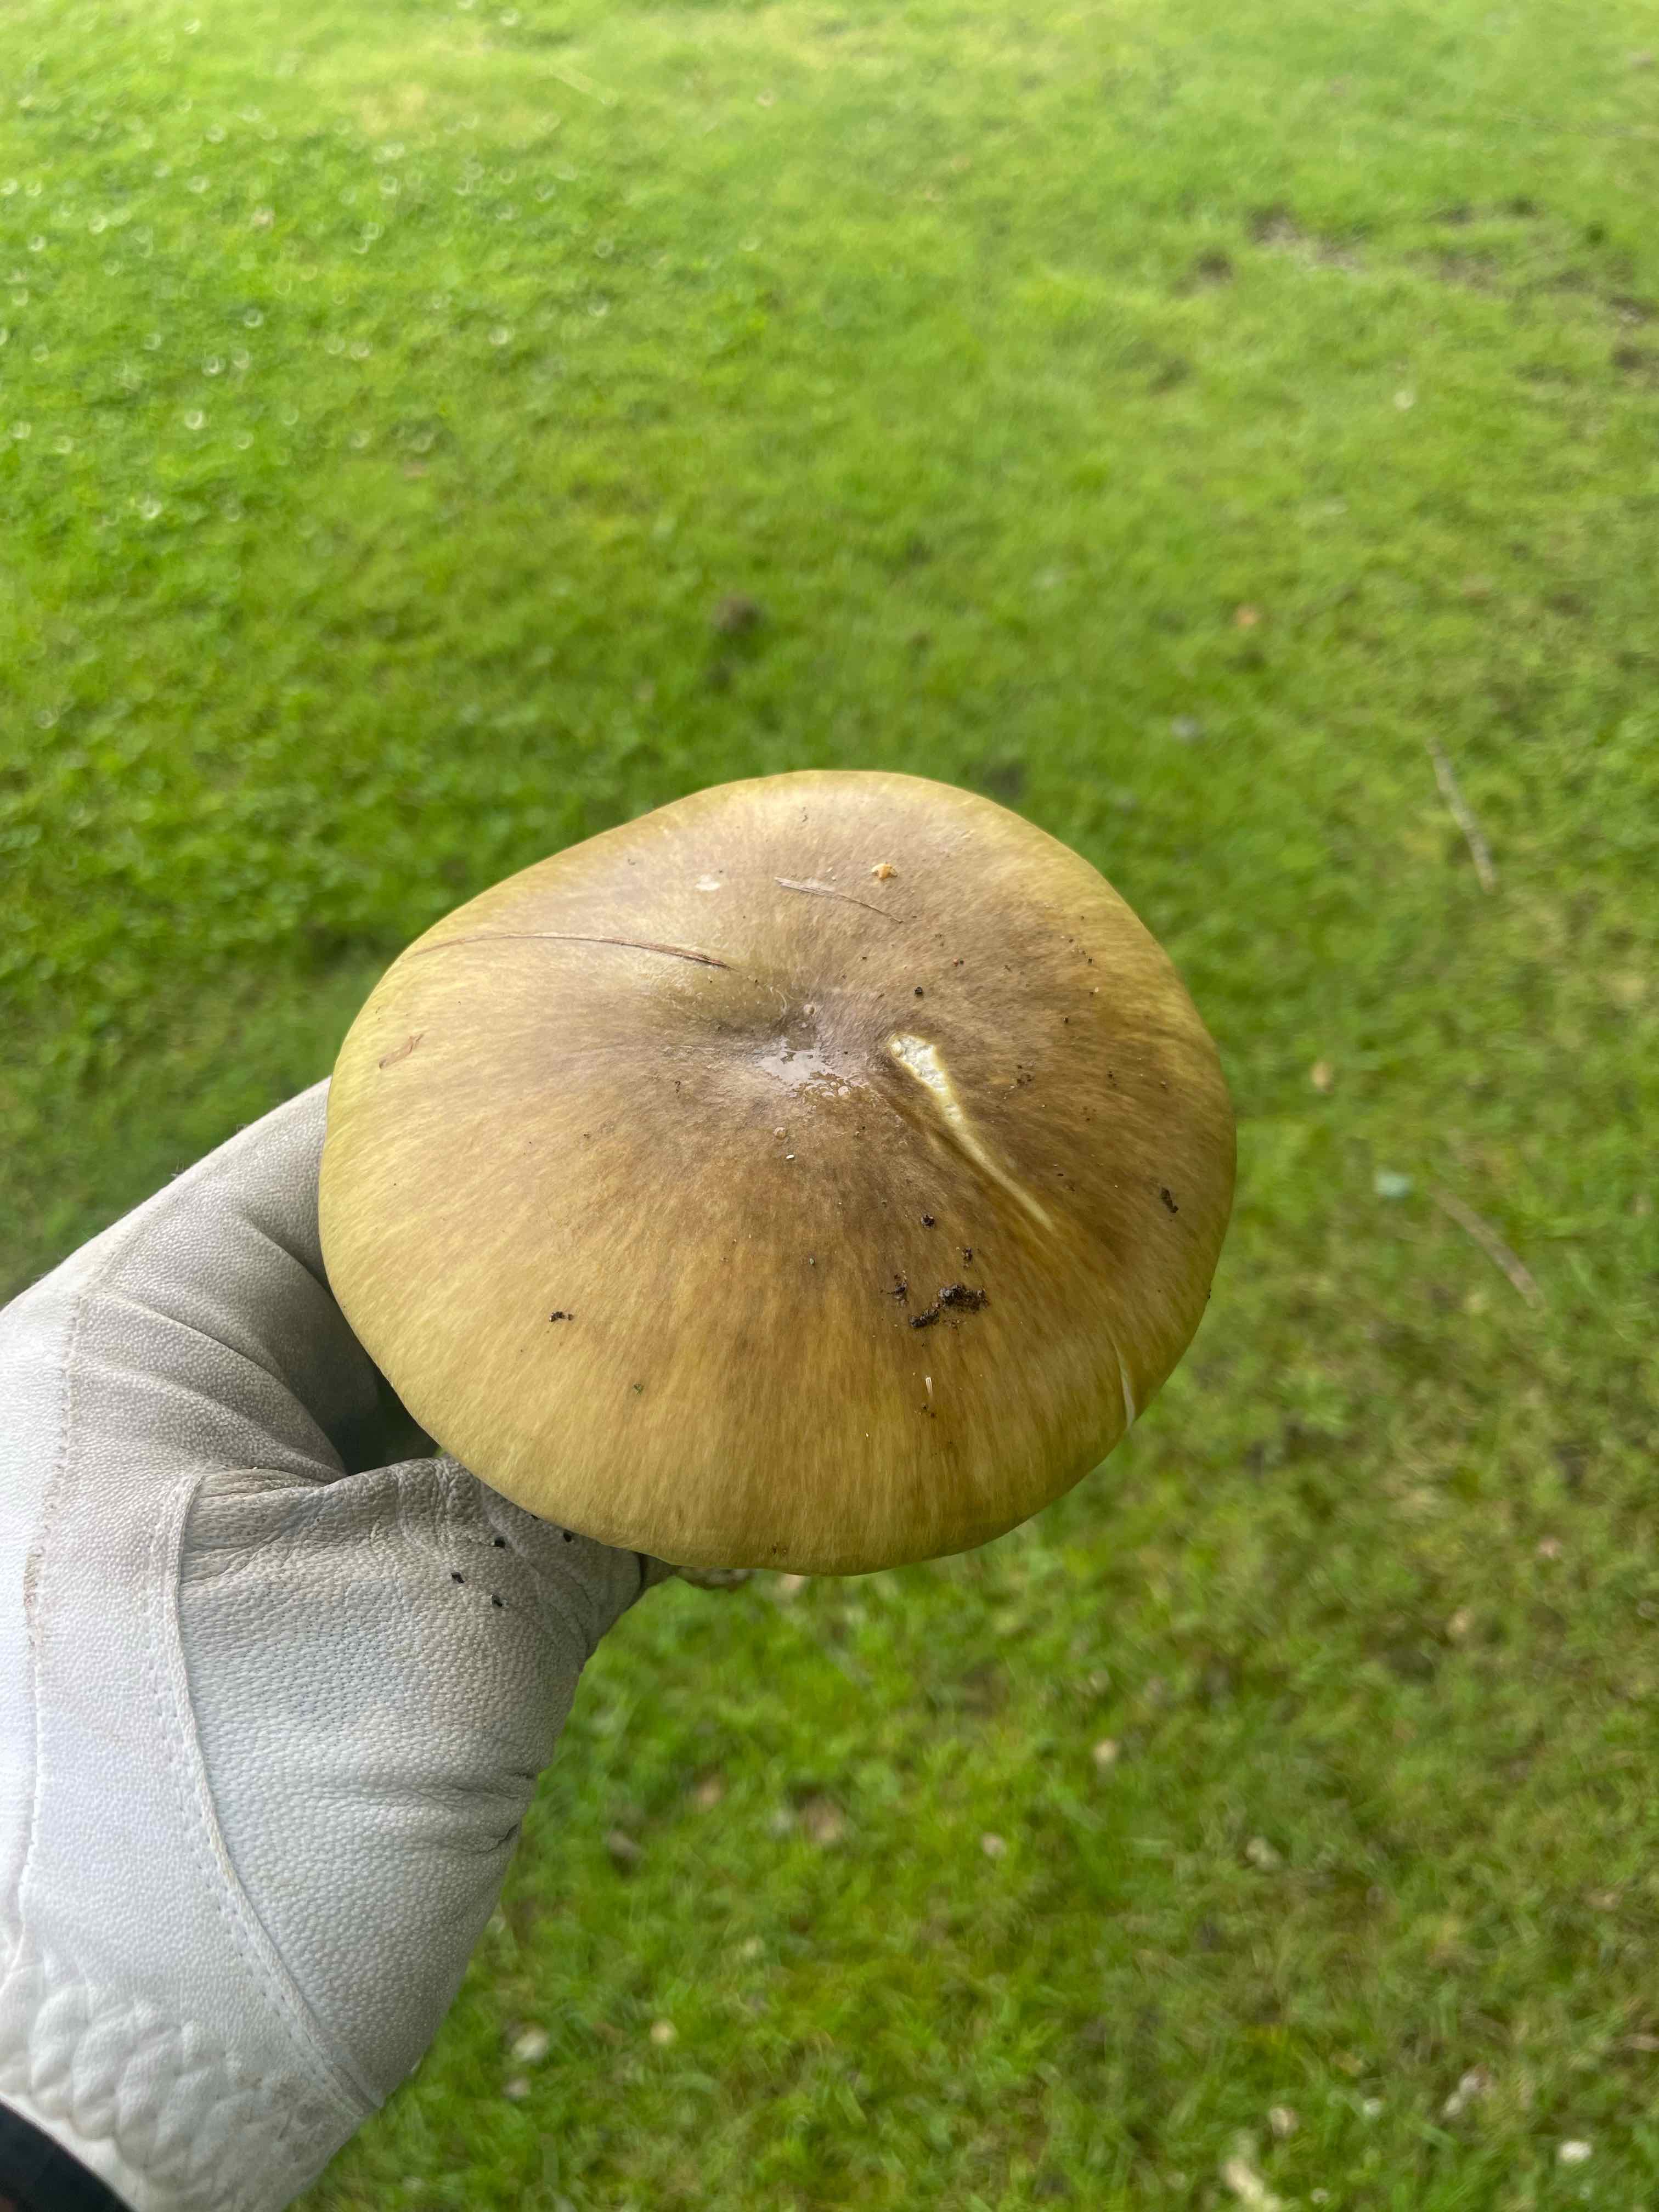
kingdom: Fungi
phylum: Basidiomycota
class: Agaricomycetes
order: Agaricales
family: Amanitaceae
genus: Amanita
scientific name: Amanita phalloides
